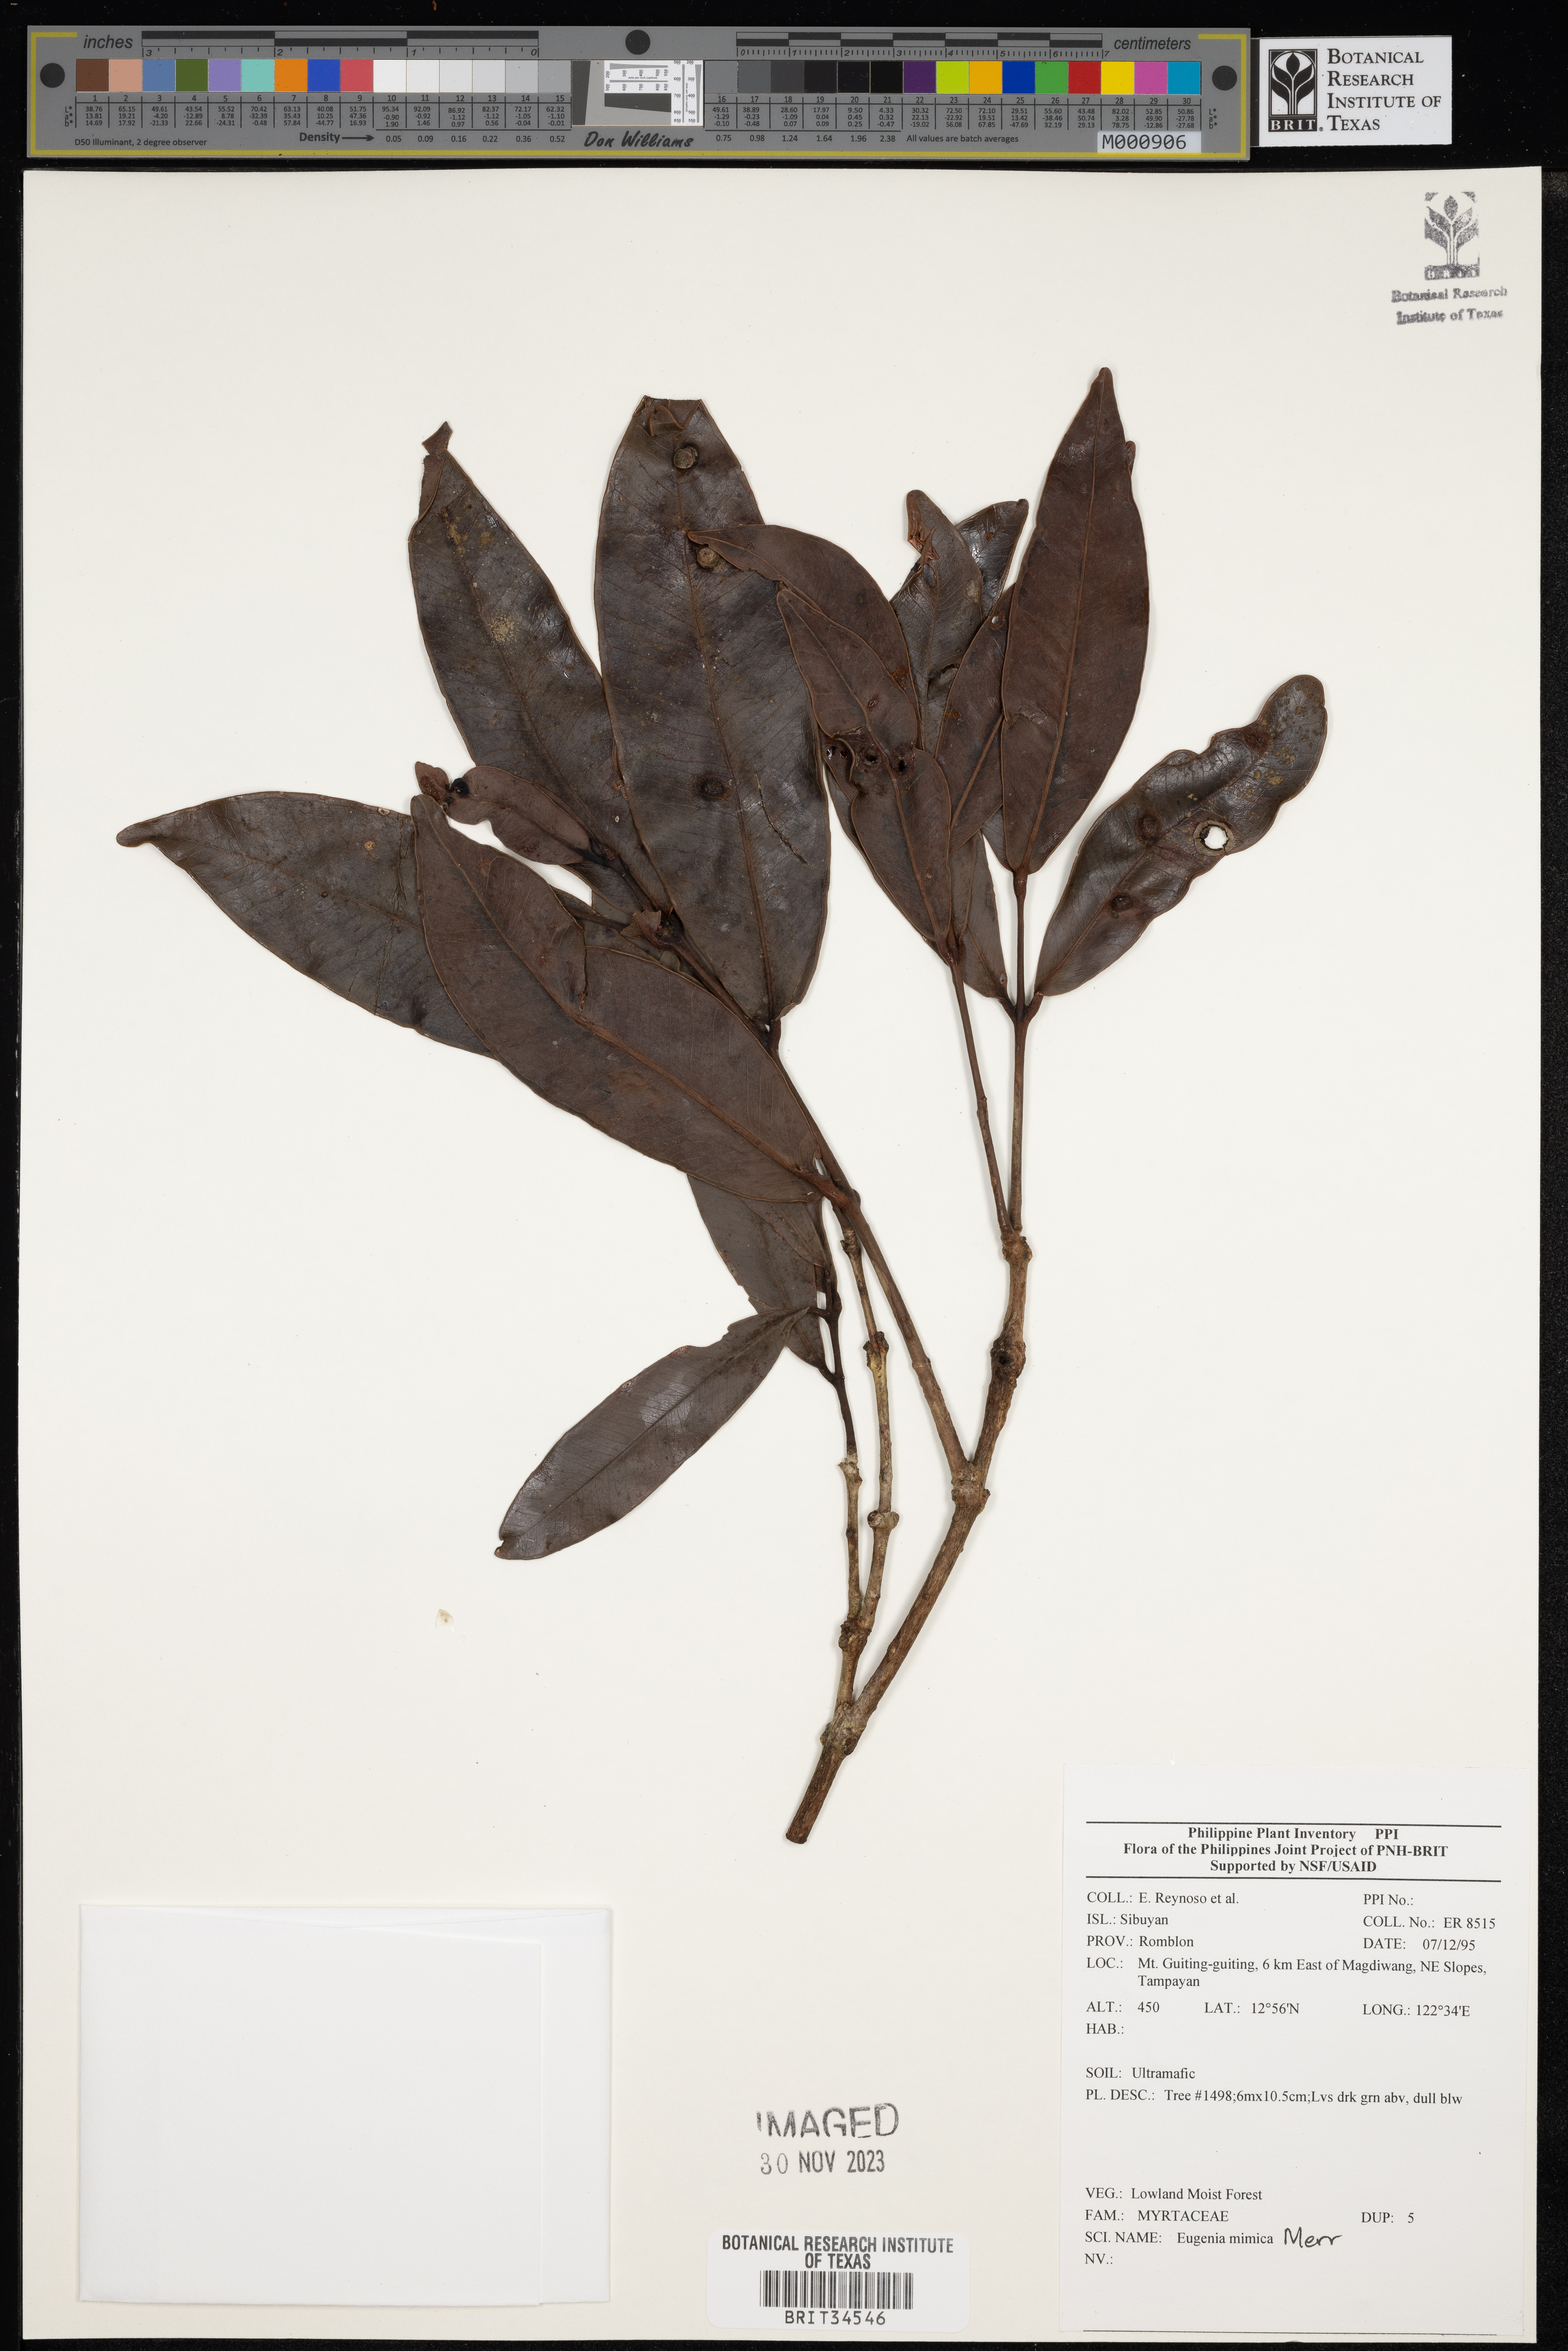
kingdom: Plantae
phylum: Tracheophyta
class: Magnoliopsida
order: Myrtales
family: Myrtaceae
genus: Eugenia
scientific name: Eugenia
